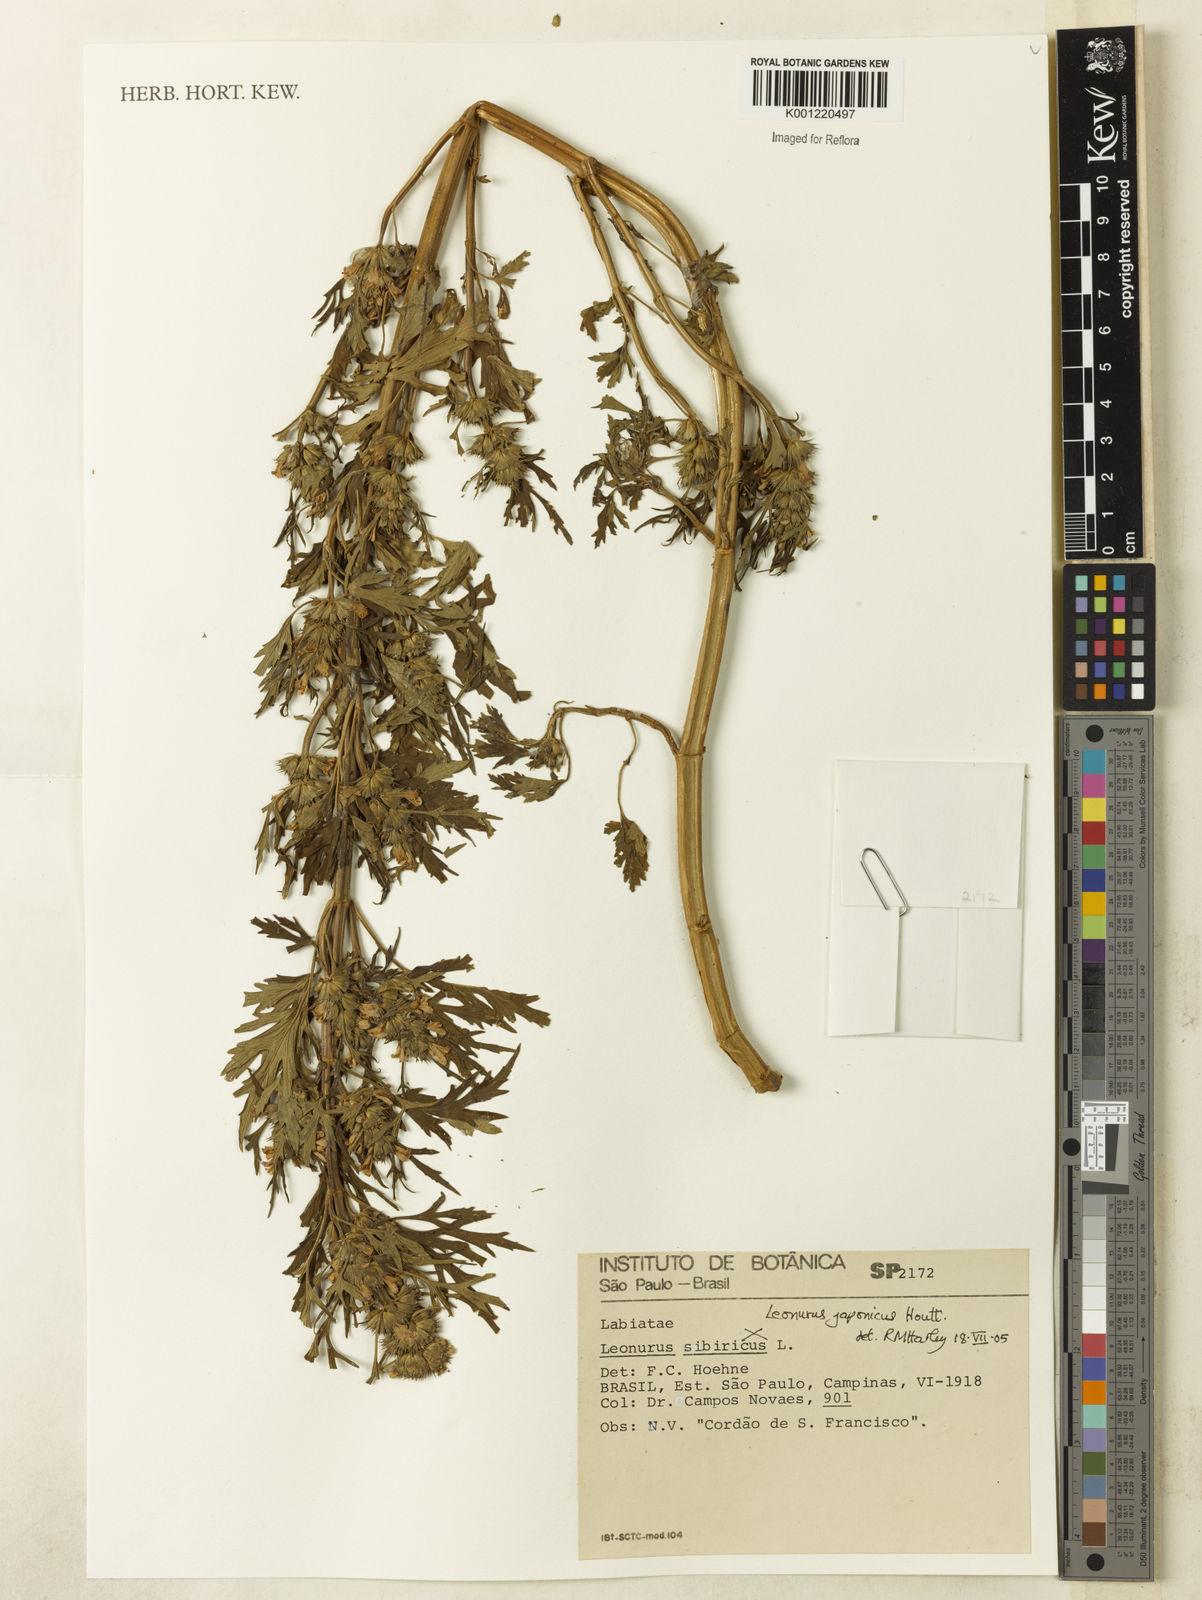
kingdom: Plantae
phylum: Tracheophyta
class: Magnoliopsida
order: Lamiales
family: Lamiaceae
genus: Leonurus
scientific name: Leonurus japonicus
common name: Honeyweed
